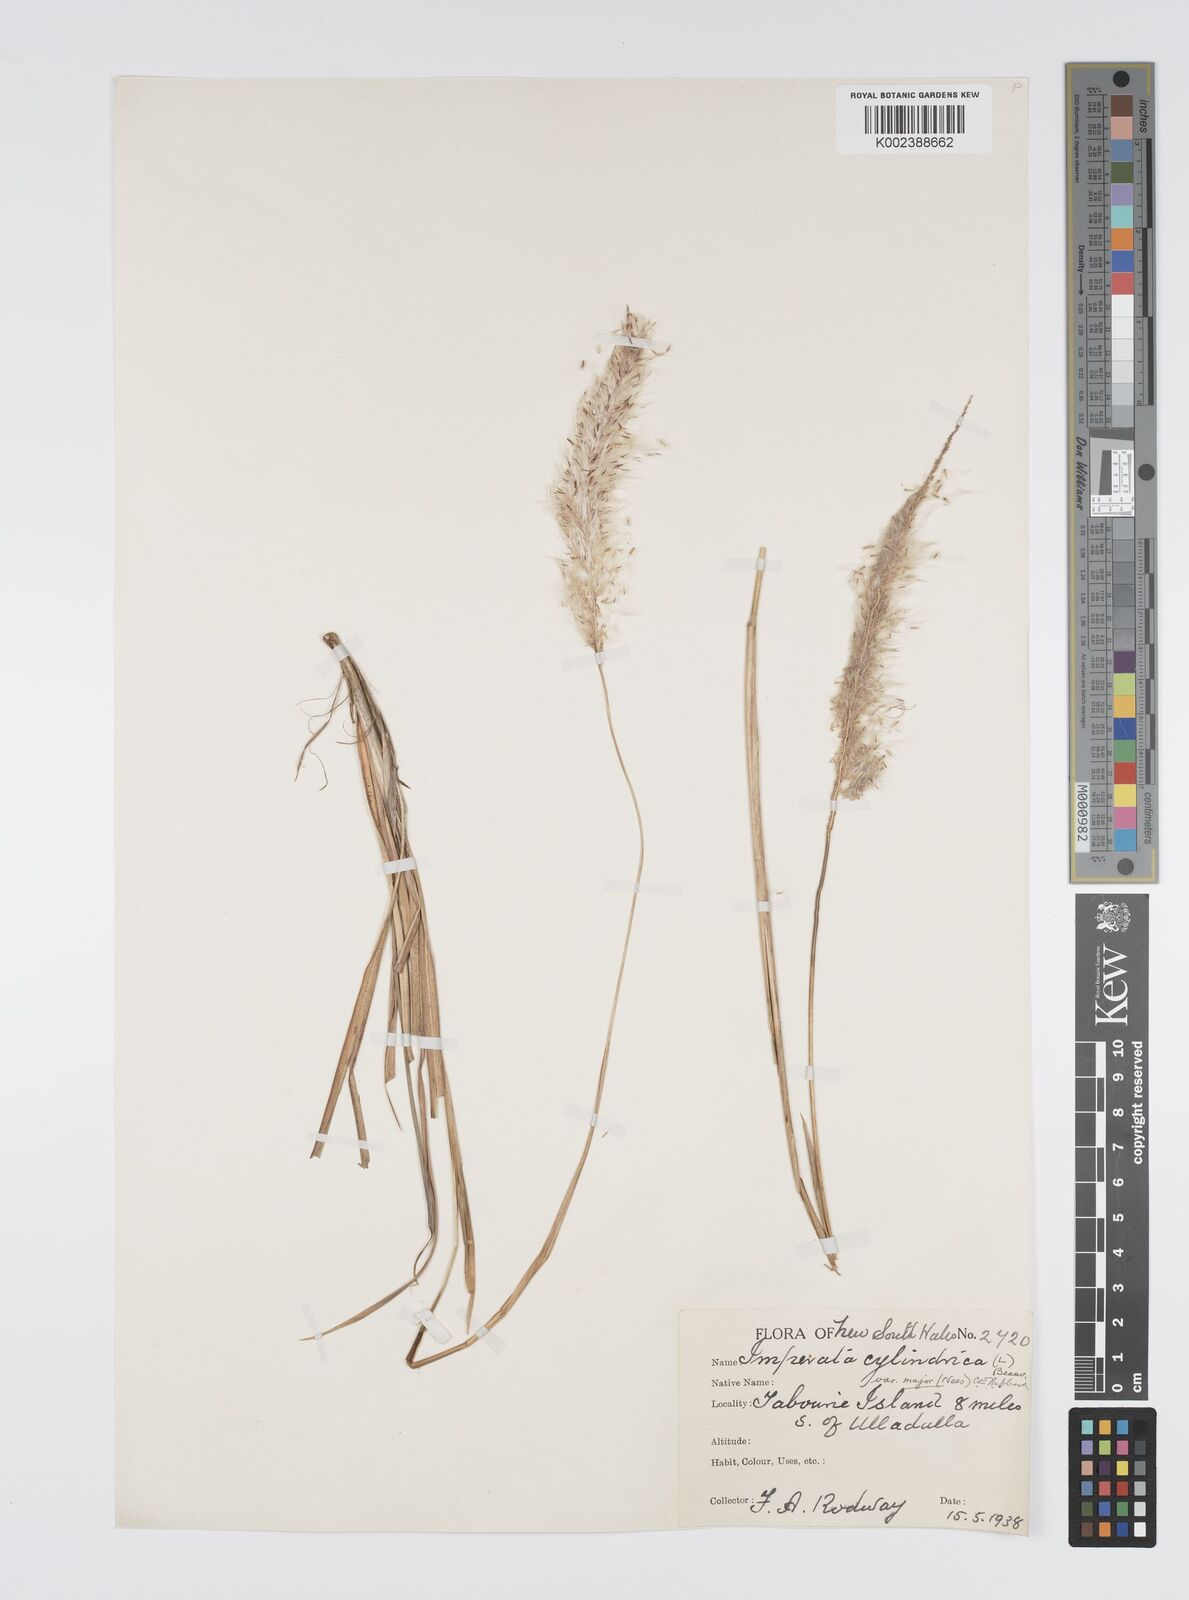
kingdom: Plantae
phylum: Tracheophyta
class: Liliopsida
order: Poales
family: Poaceae
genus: Imperata
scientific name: Imperata cylindrica
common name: Cogongrass
